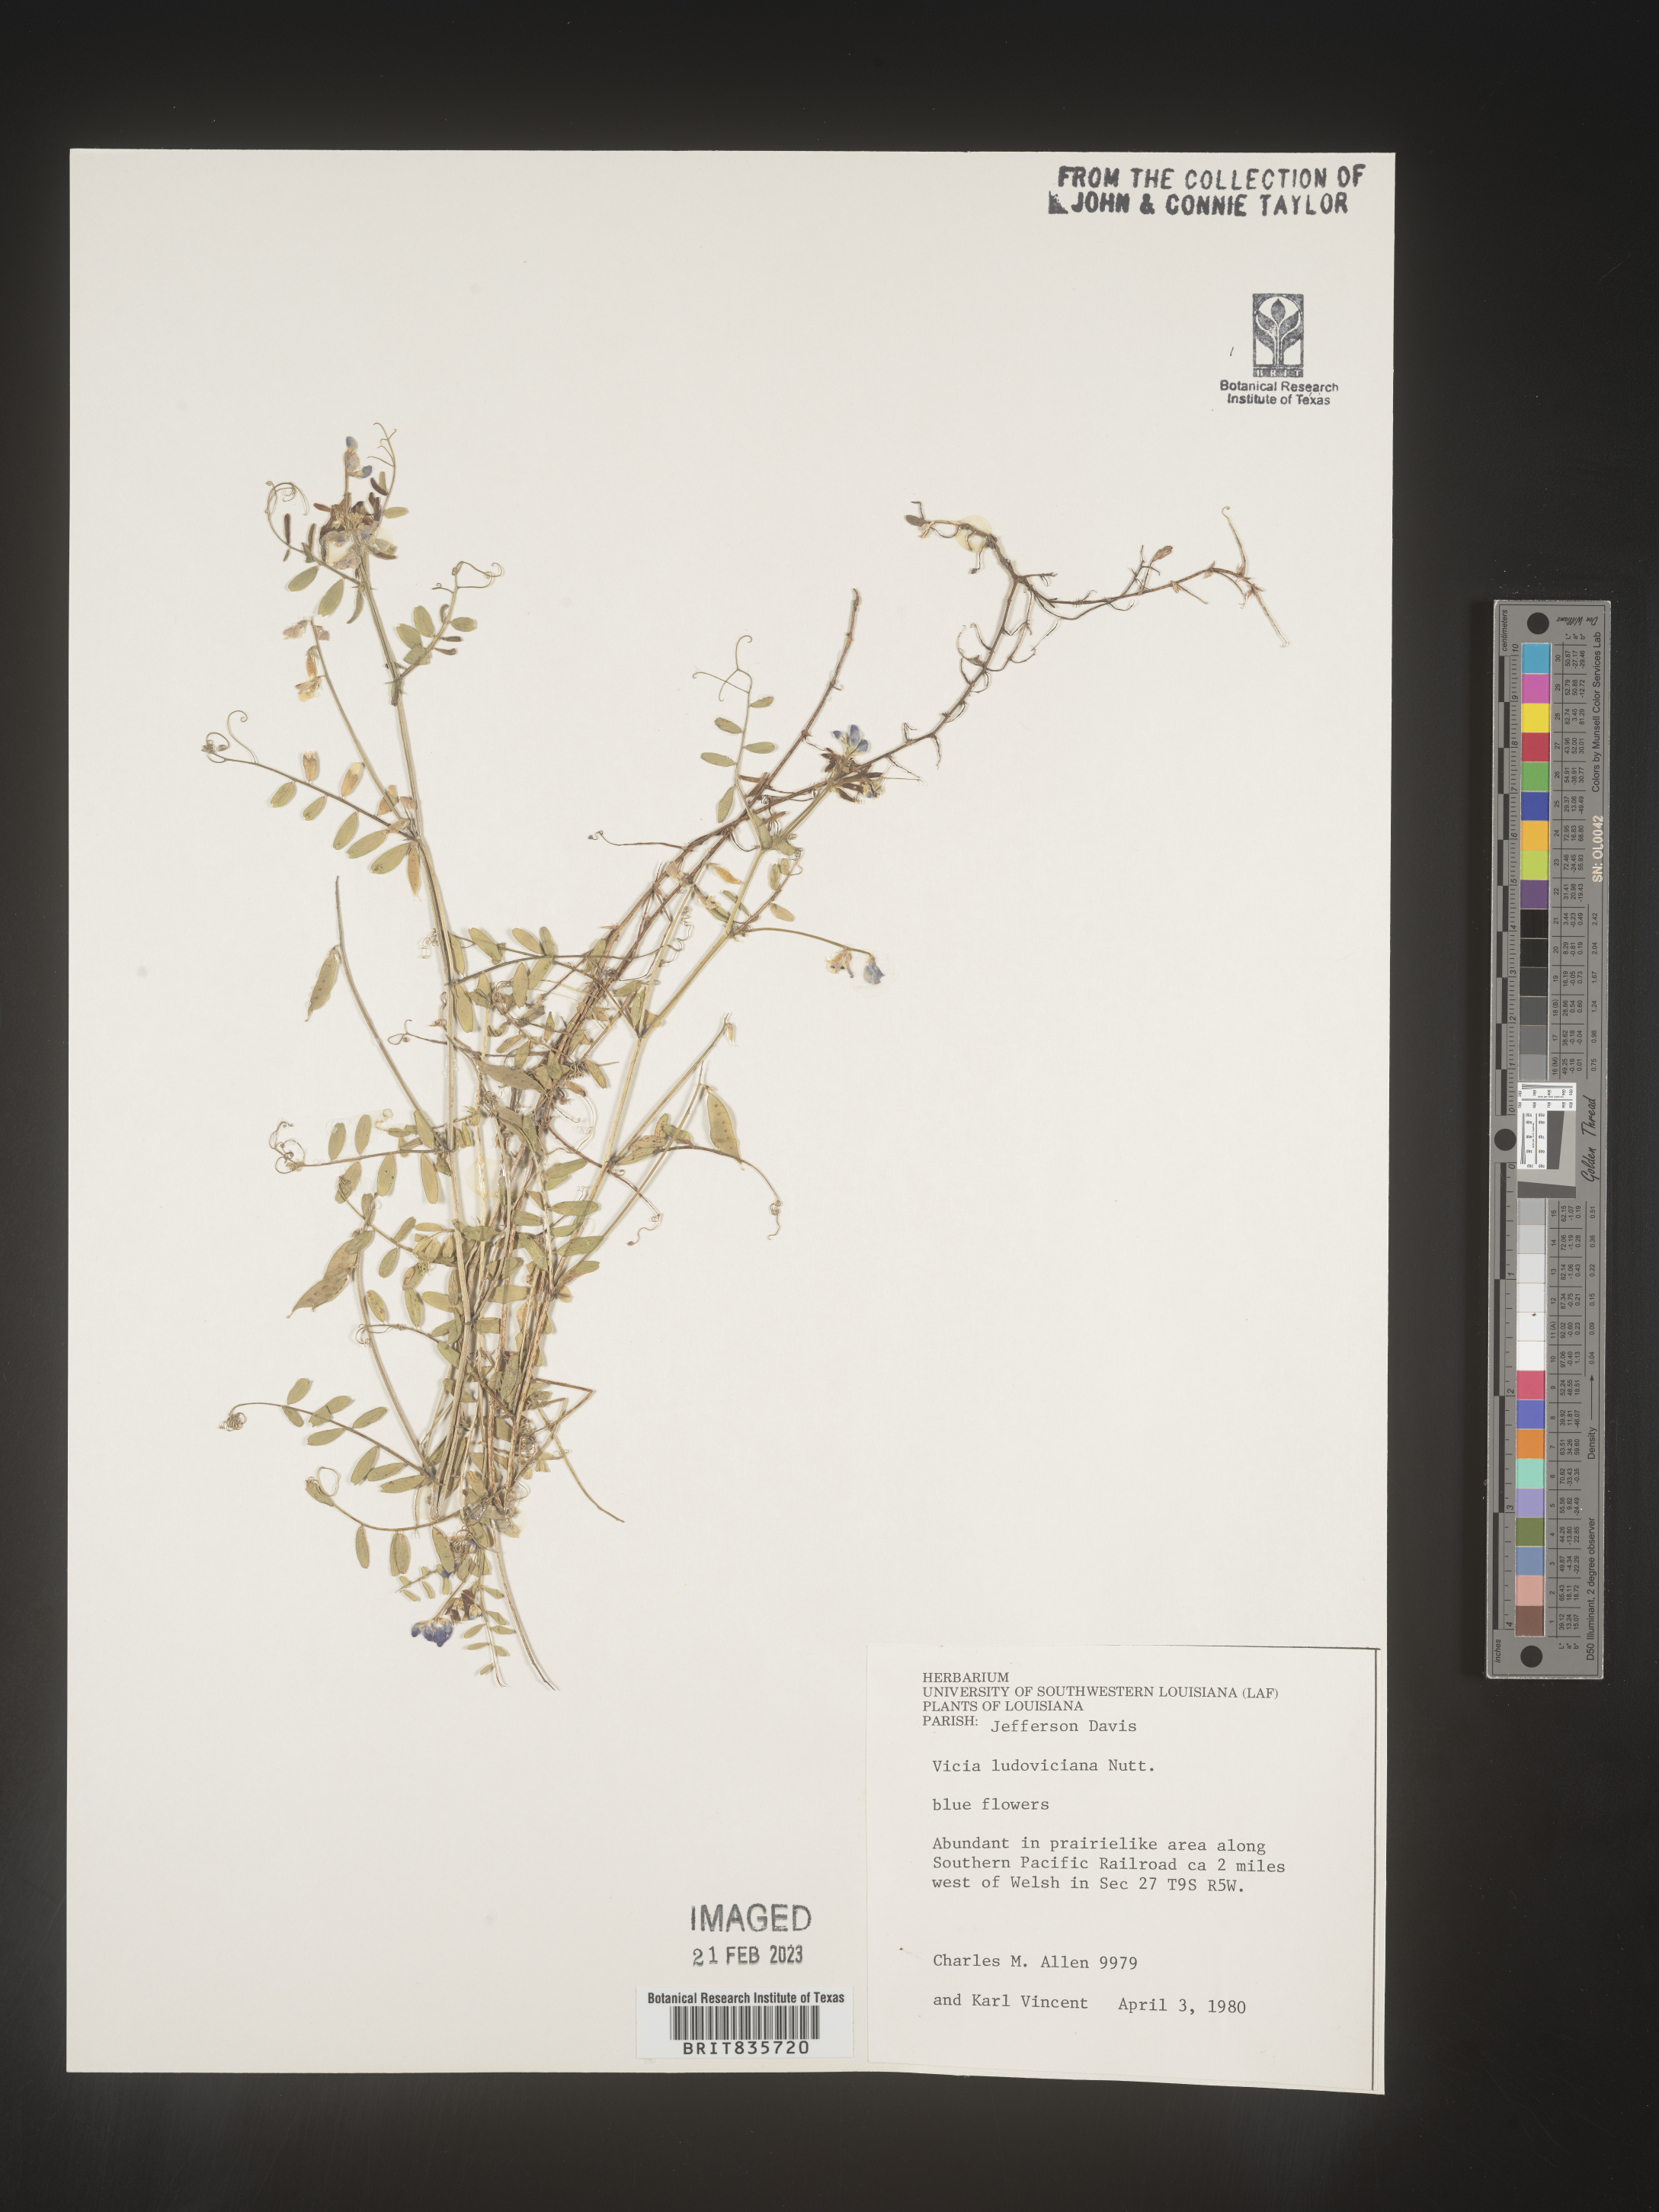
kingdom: Plantae
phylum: Tracheophyta
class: Magnoliopsida
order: Fabales
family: Fabaceae
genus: Vicia
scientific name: Vicia ludoviciana
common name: Louisiana vetch
